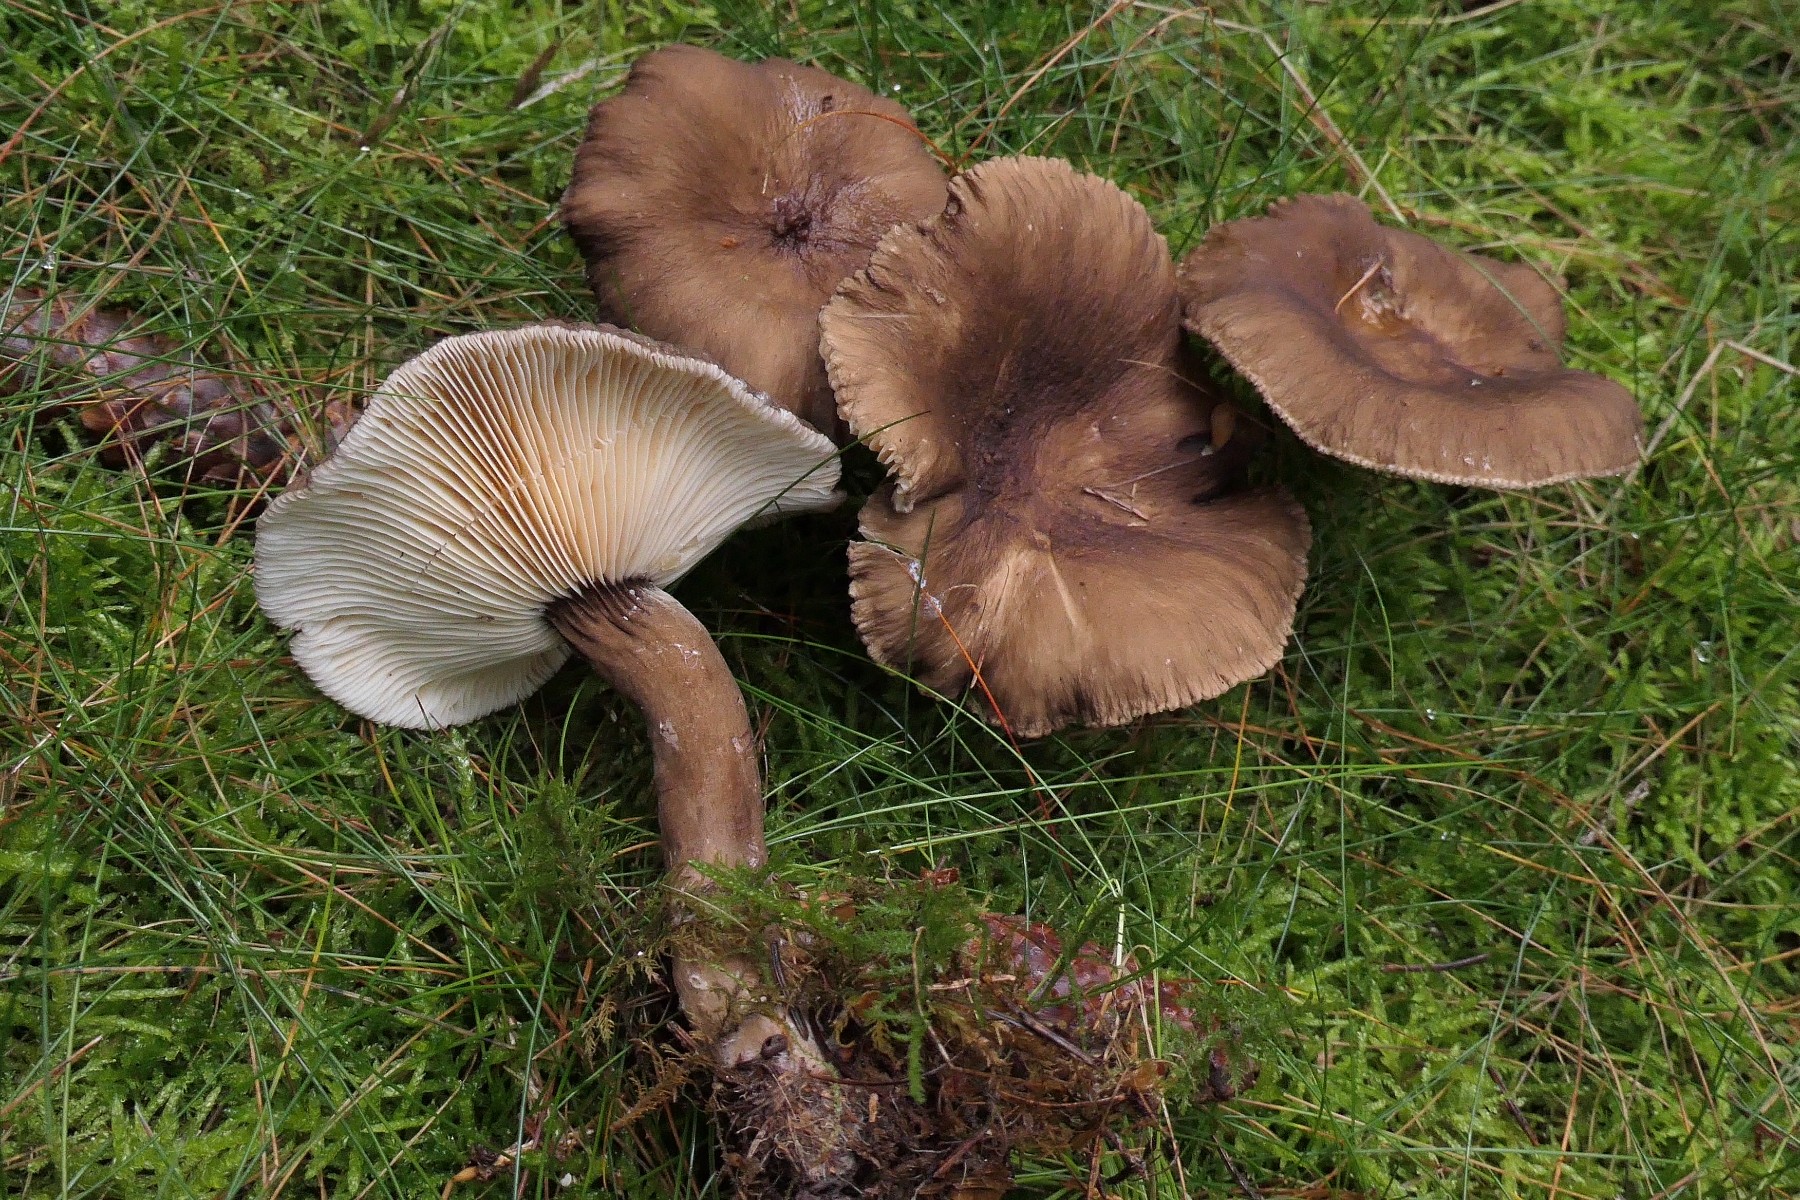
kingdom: Fungi
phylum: Basidiomycota
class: Agaricomycetes
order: Russulales
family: Russulaceae
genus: Lactarius
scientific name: Lactarius lignyotus
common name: fløjls-mælkehat
